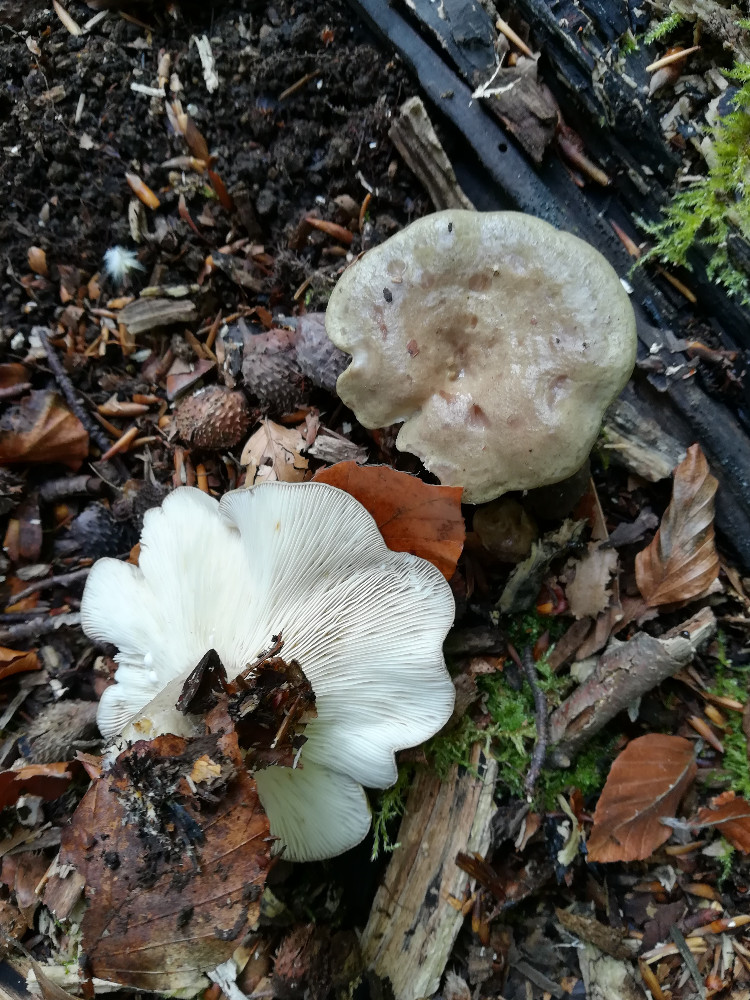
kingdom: Fungi
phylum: Basidiomycota
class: Agaricomycetes
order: Russulales
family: Russulaceae
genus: Lactarius
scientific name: Lactarius blennius
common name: dråbeplettet mælkehat
